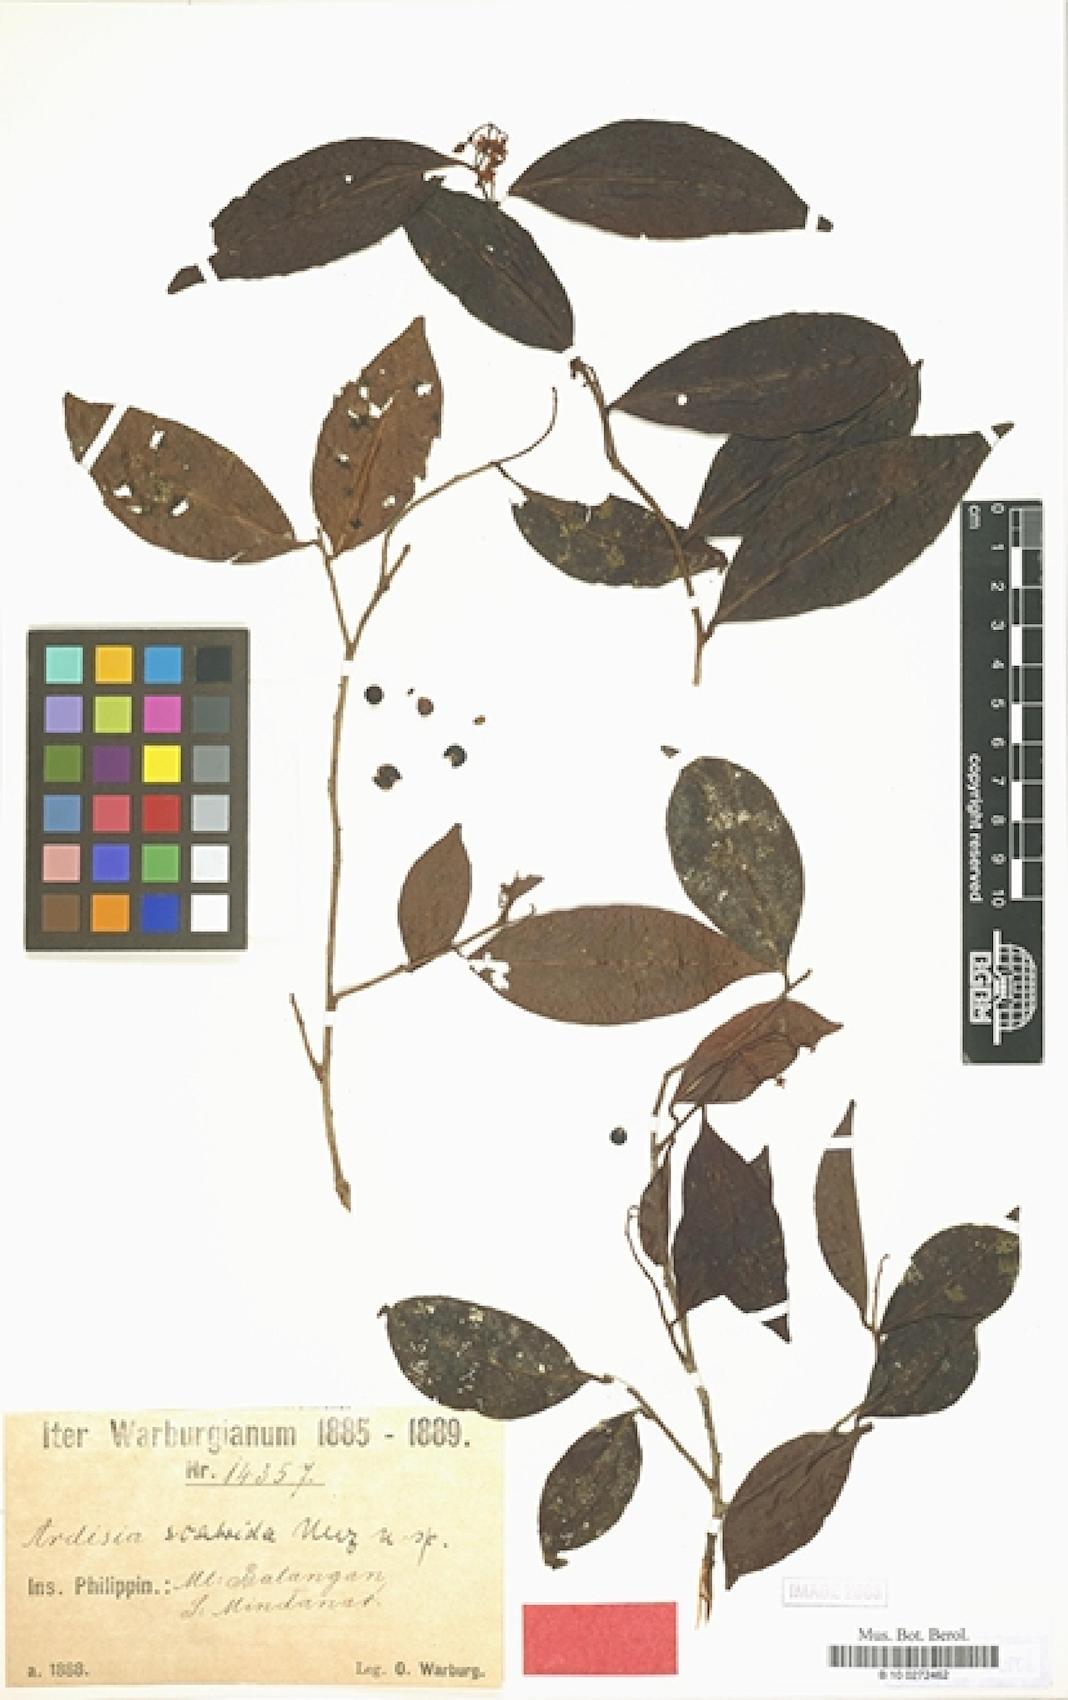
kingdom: Plantae
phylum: Tracheophyta
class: Magnoliopsida
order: Ericales
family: Primulaceae
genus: Ardisia
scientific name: Ardisia scabrida
